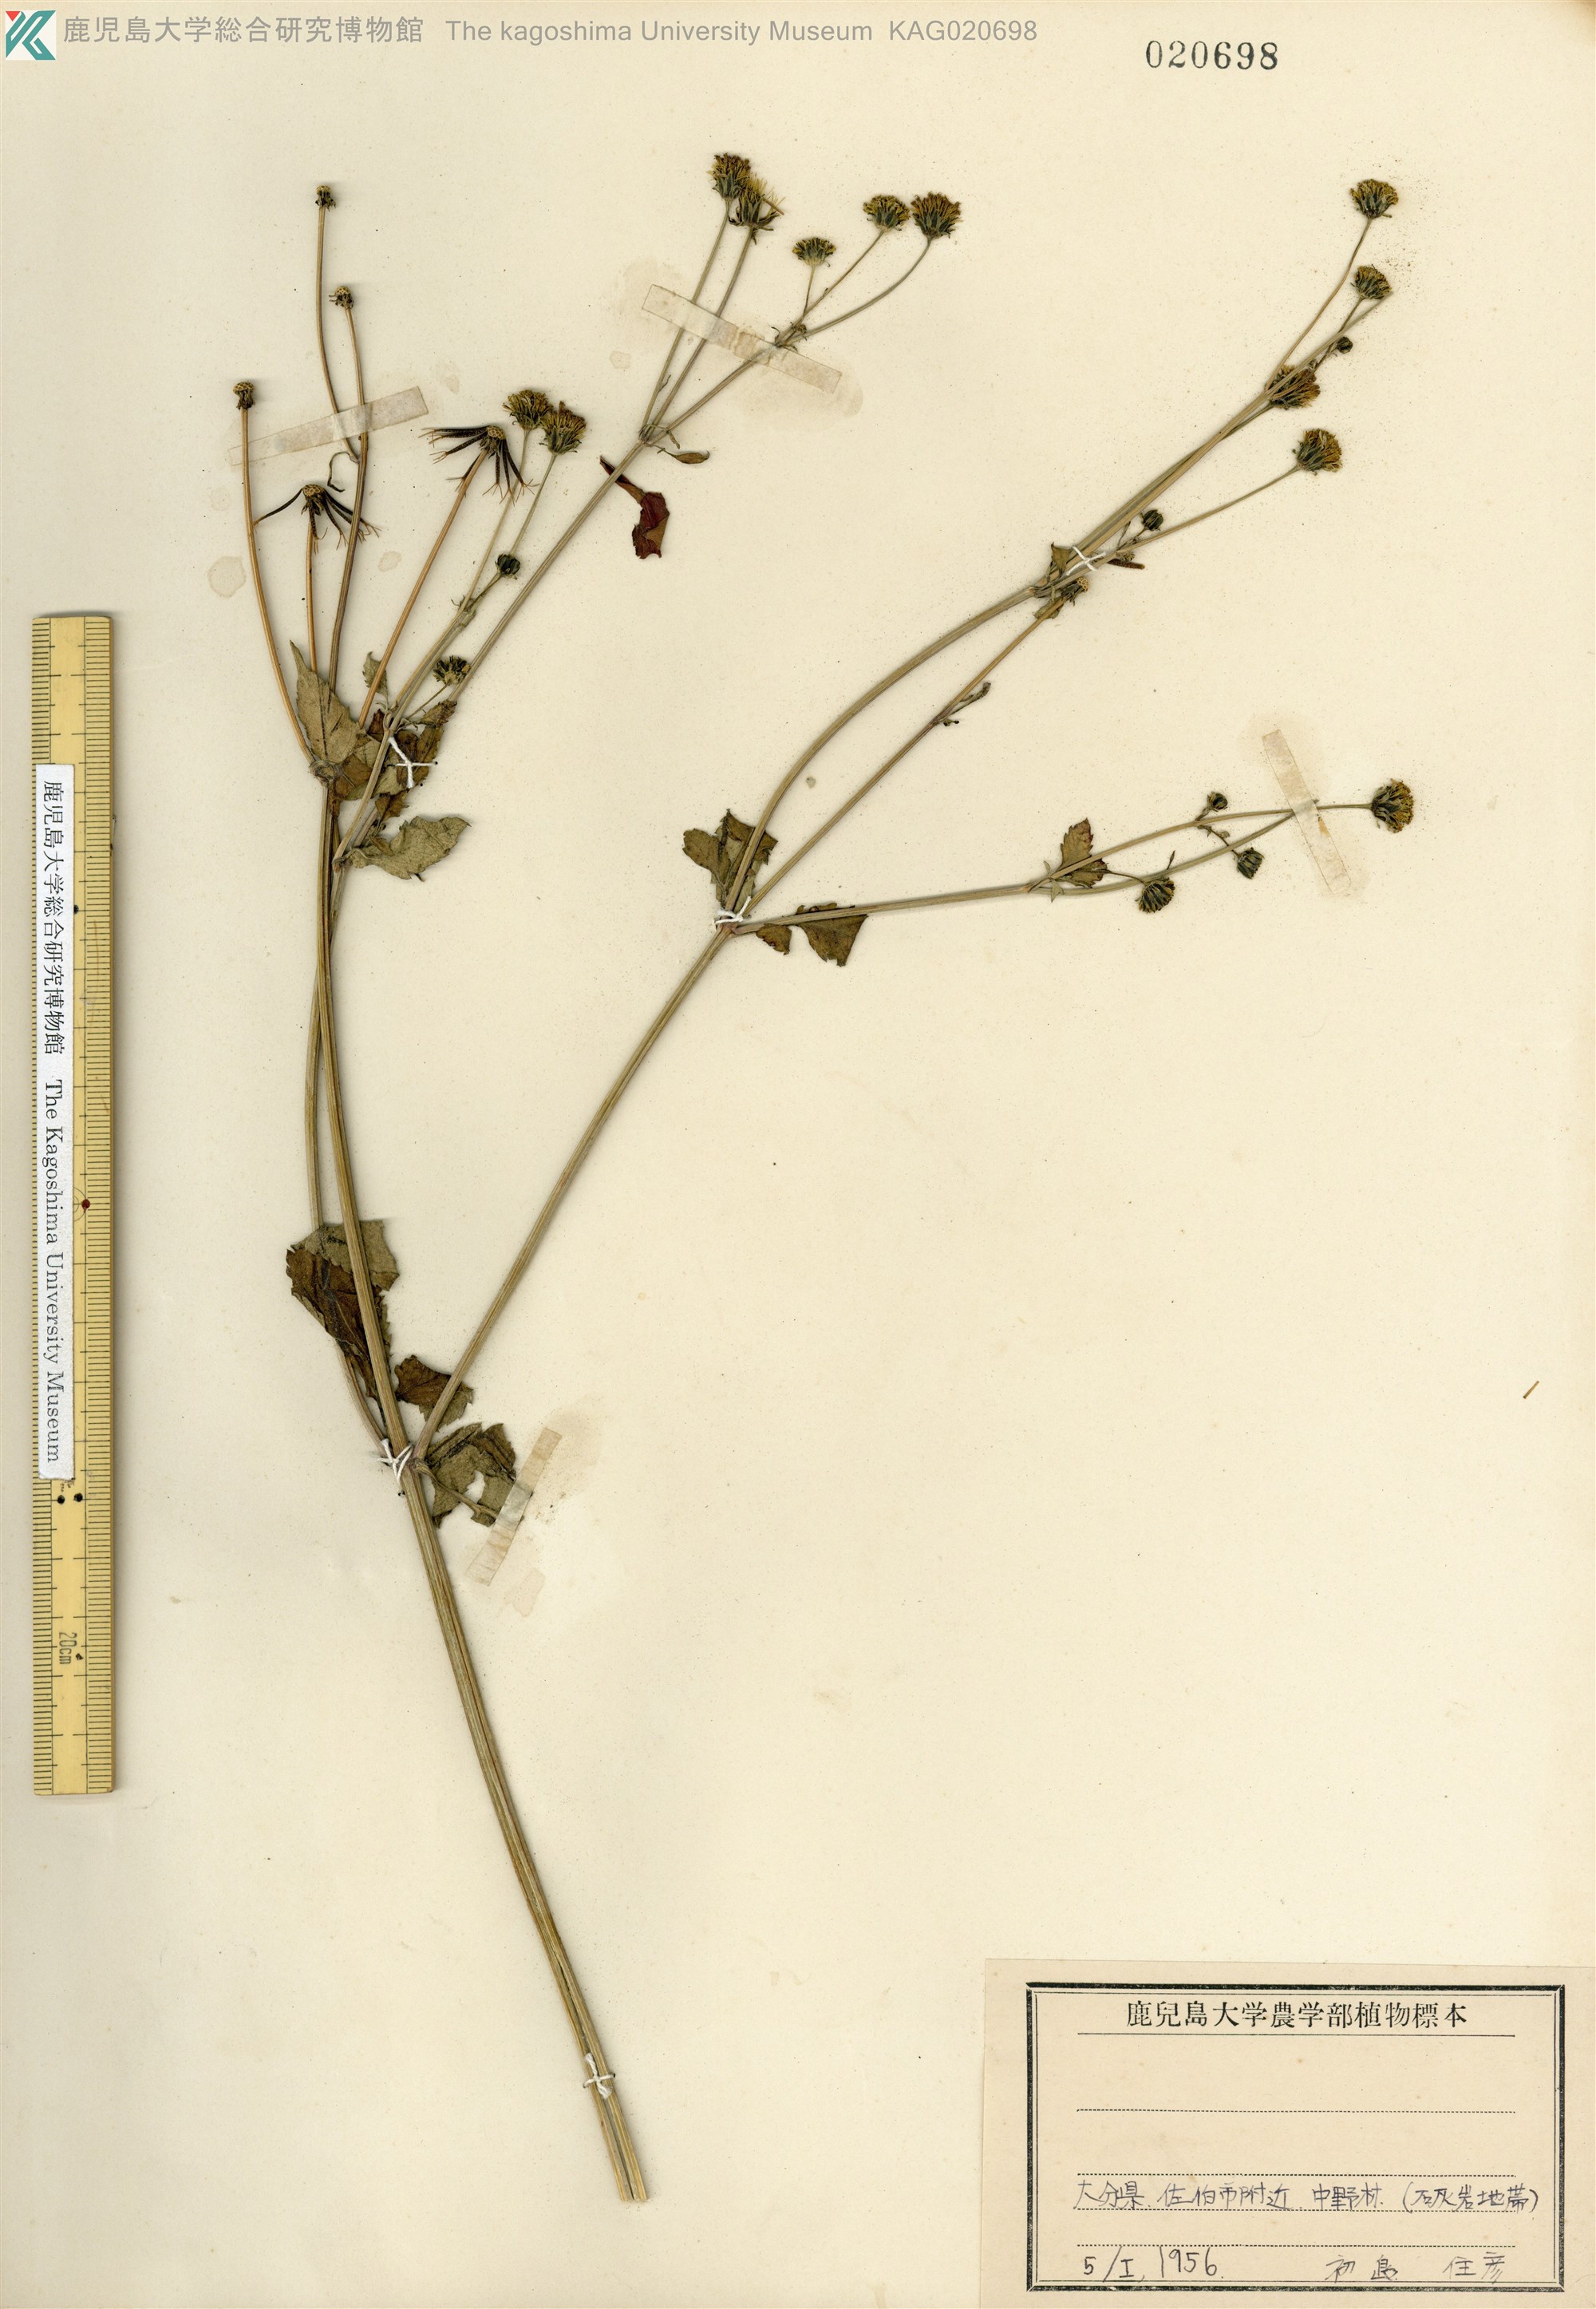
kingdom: Plantae
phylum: Tracheophyta
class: Magnoliopsida
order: Asterales
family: Asteraceae
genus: Bidens
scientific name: Bidens pilosa
